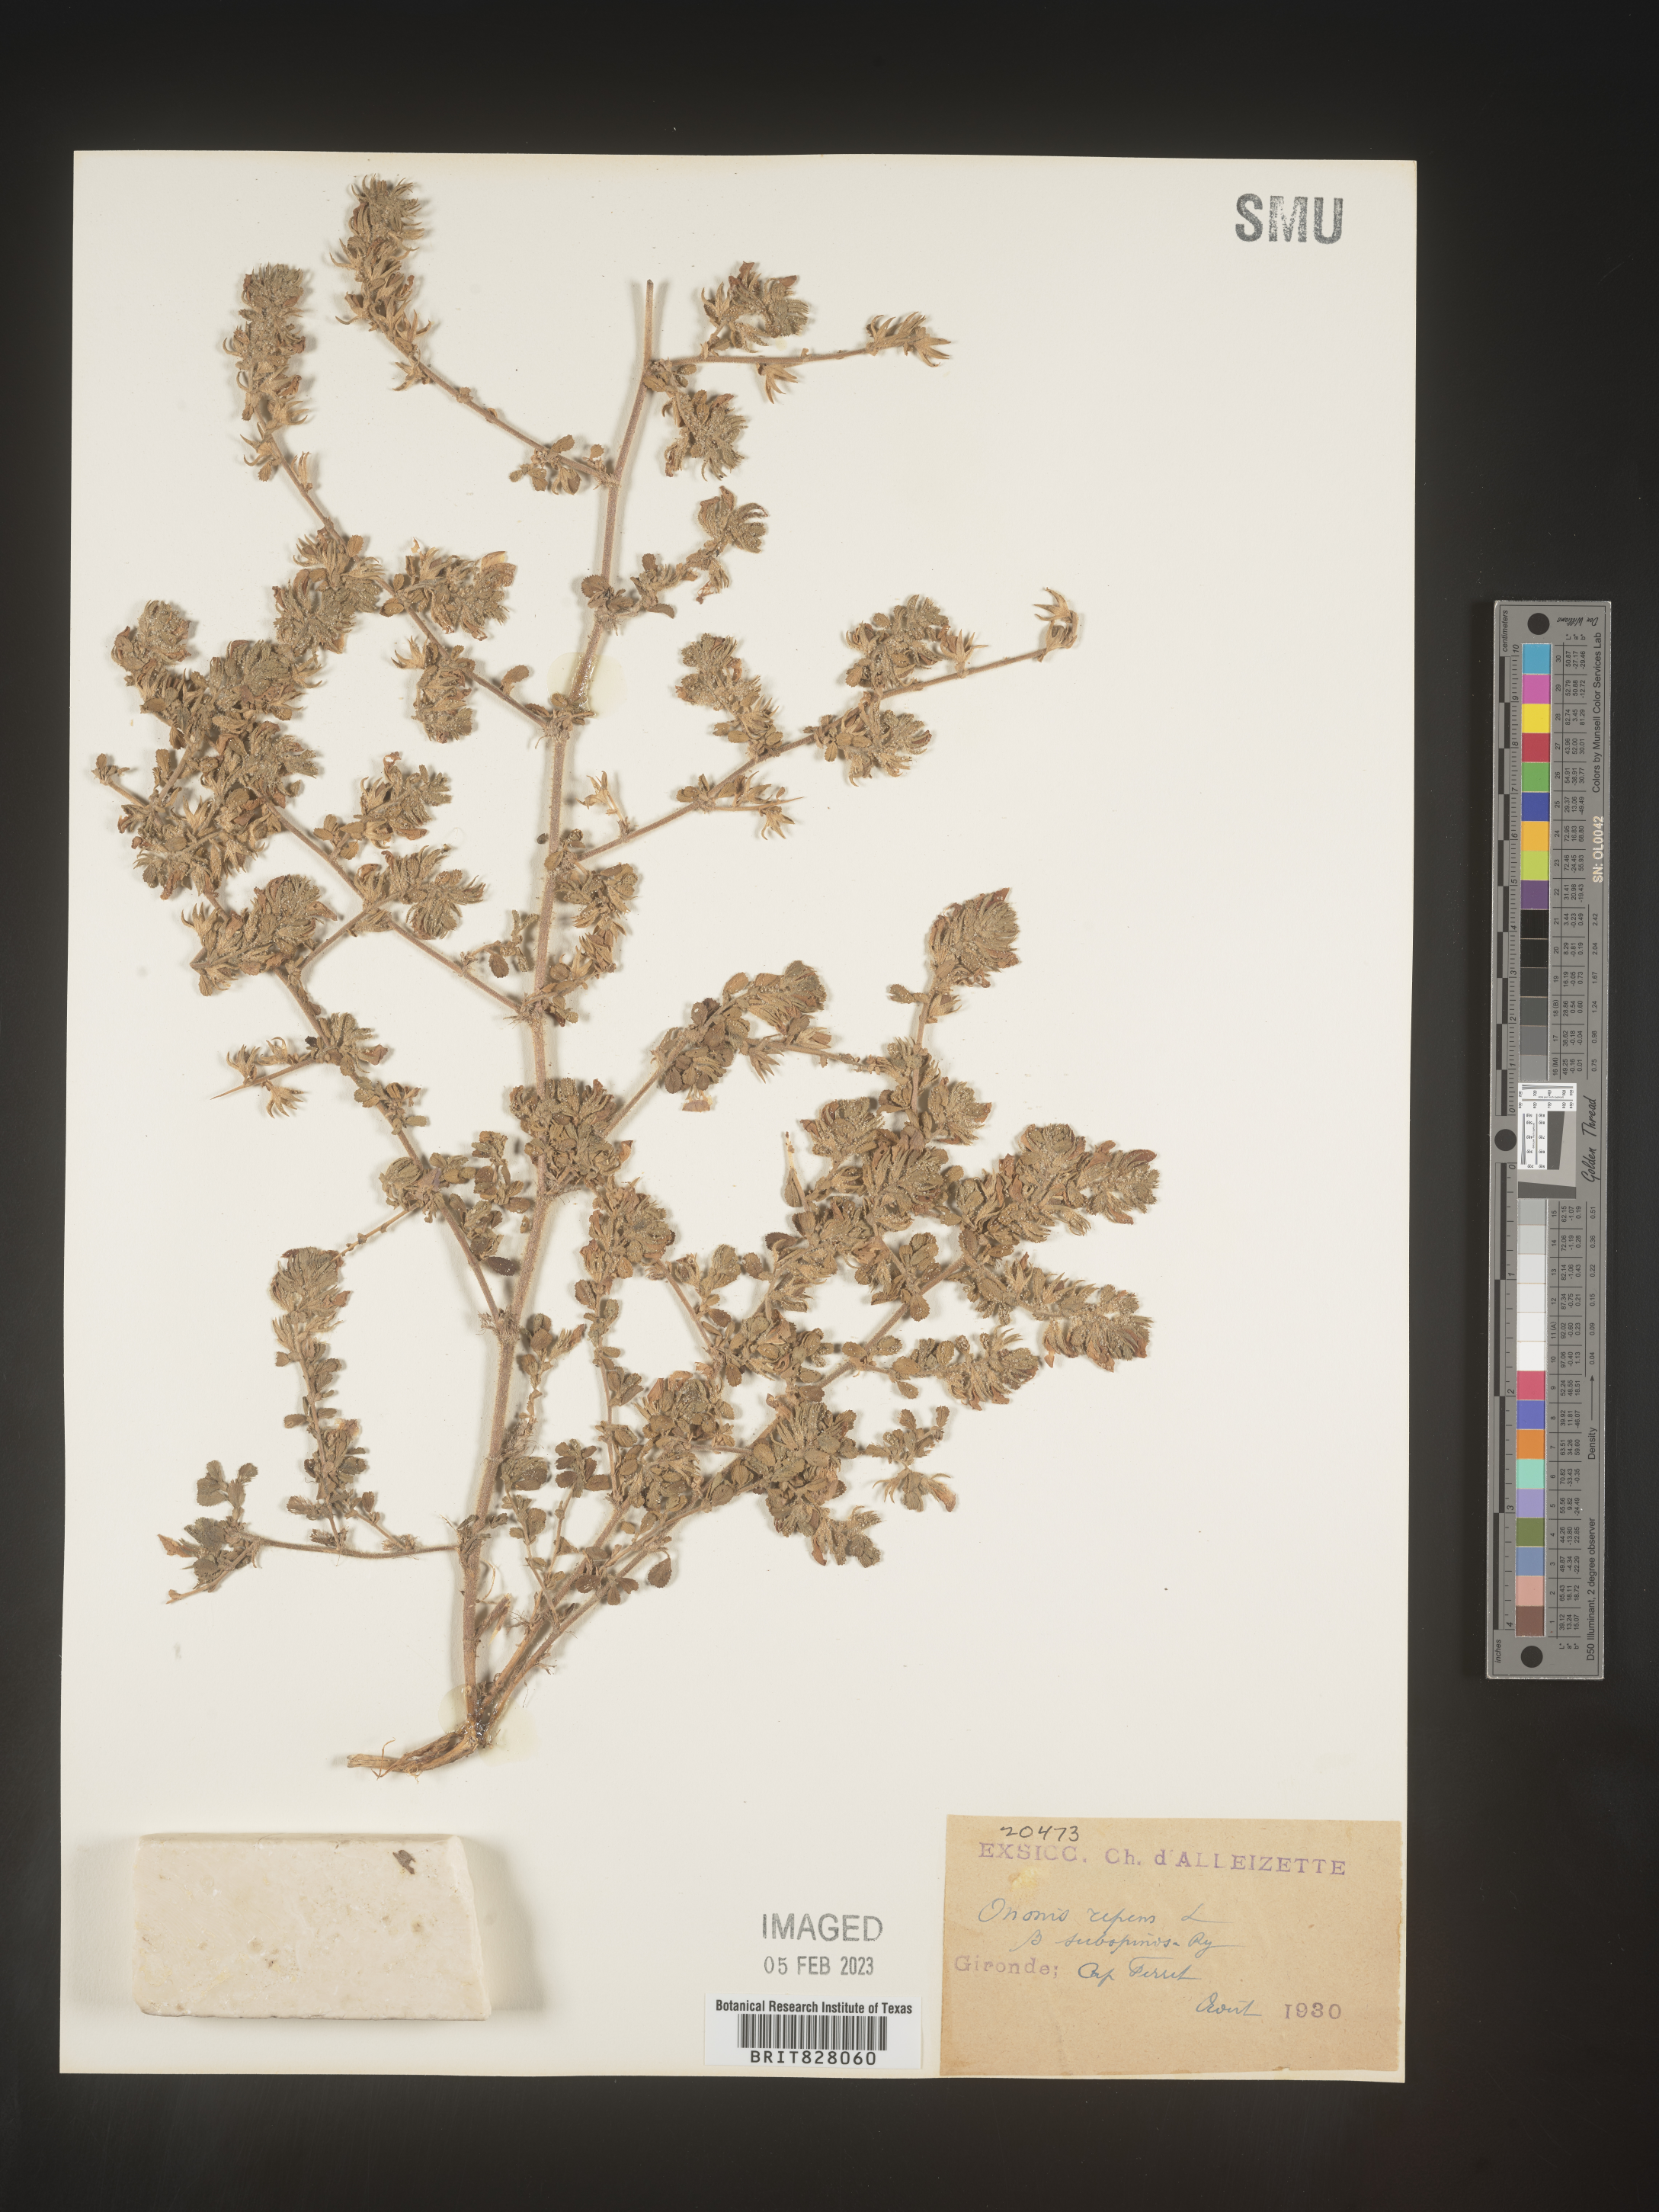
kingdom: Plantae
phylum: Tracheophyta
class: Magnoliopsida
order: Fabales
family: Fabaceae
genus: Ononis
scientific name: Ononis
